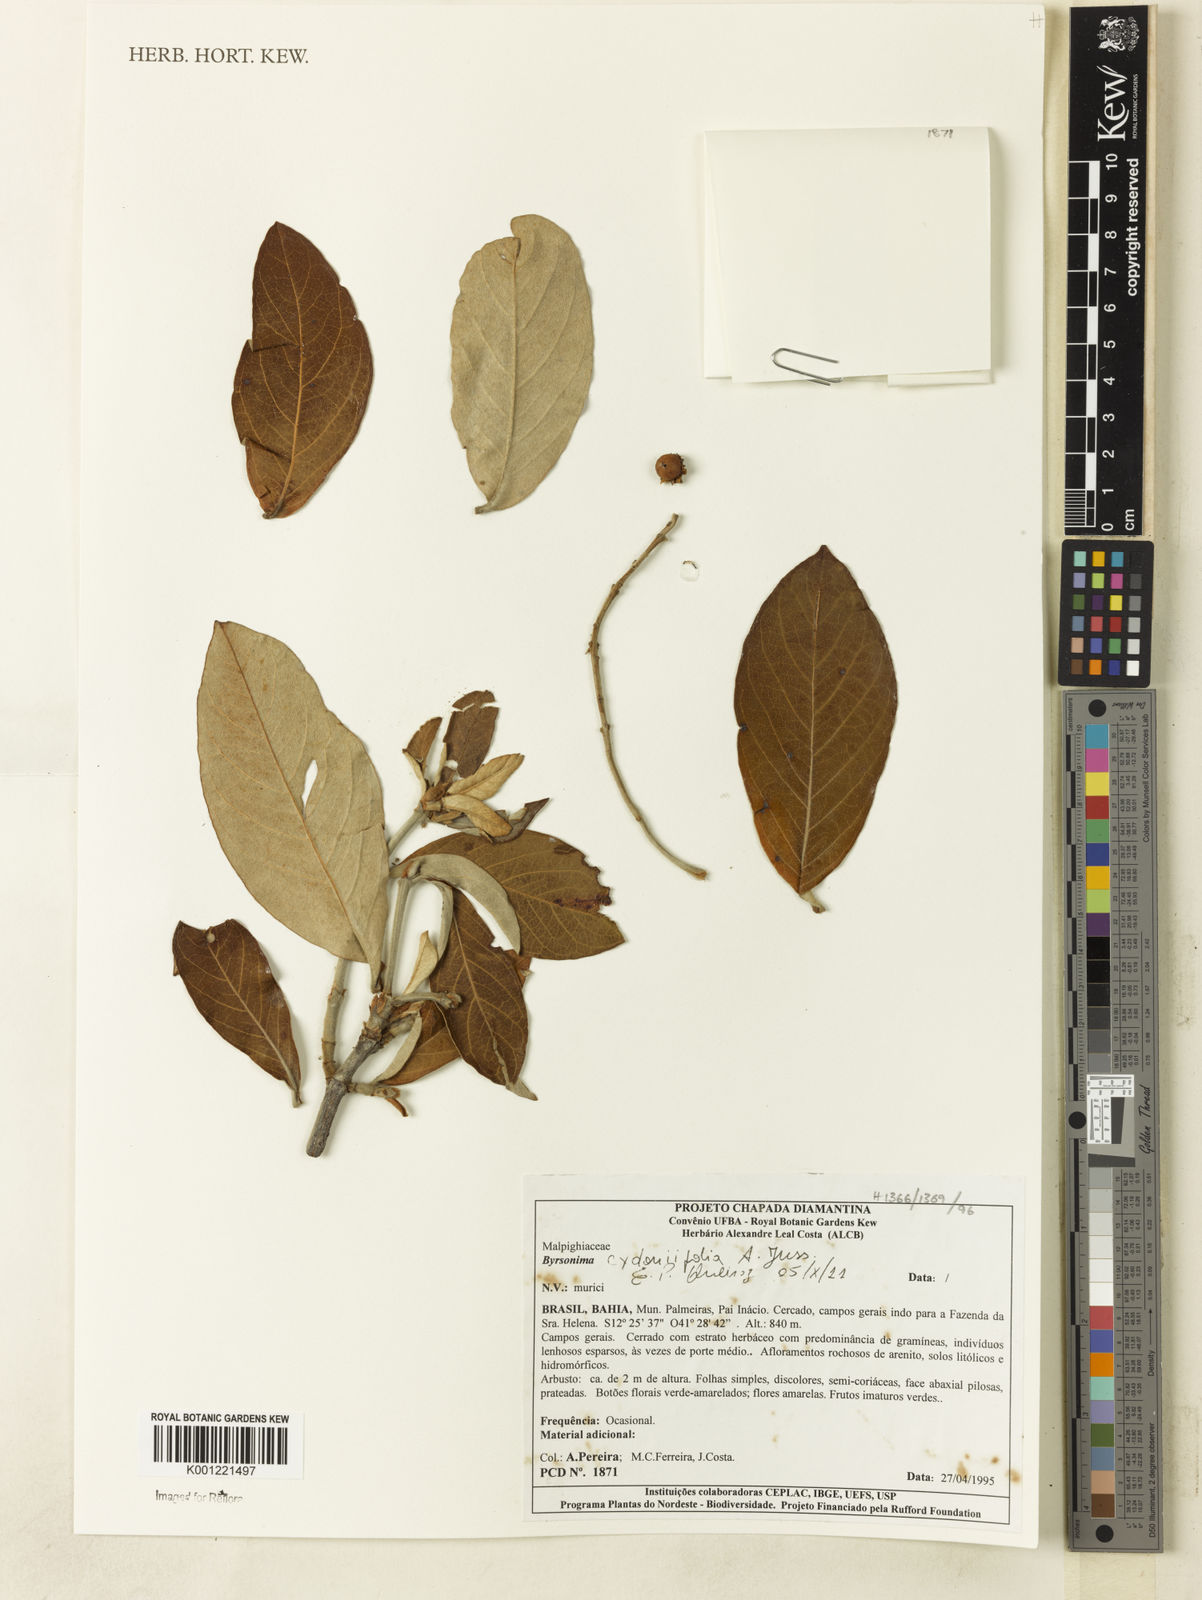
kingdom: Plantae
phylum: Tracheophyta
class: Magnoliopsida
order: Malpighiales
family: Malpighiaceae
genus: Byrsonima
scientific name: Byrsonima cydoniifolia
